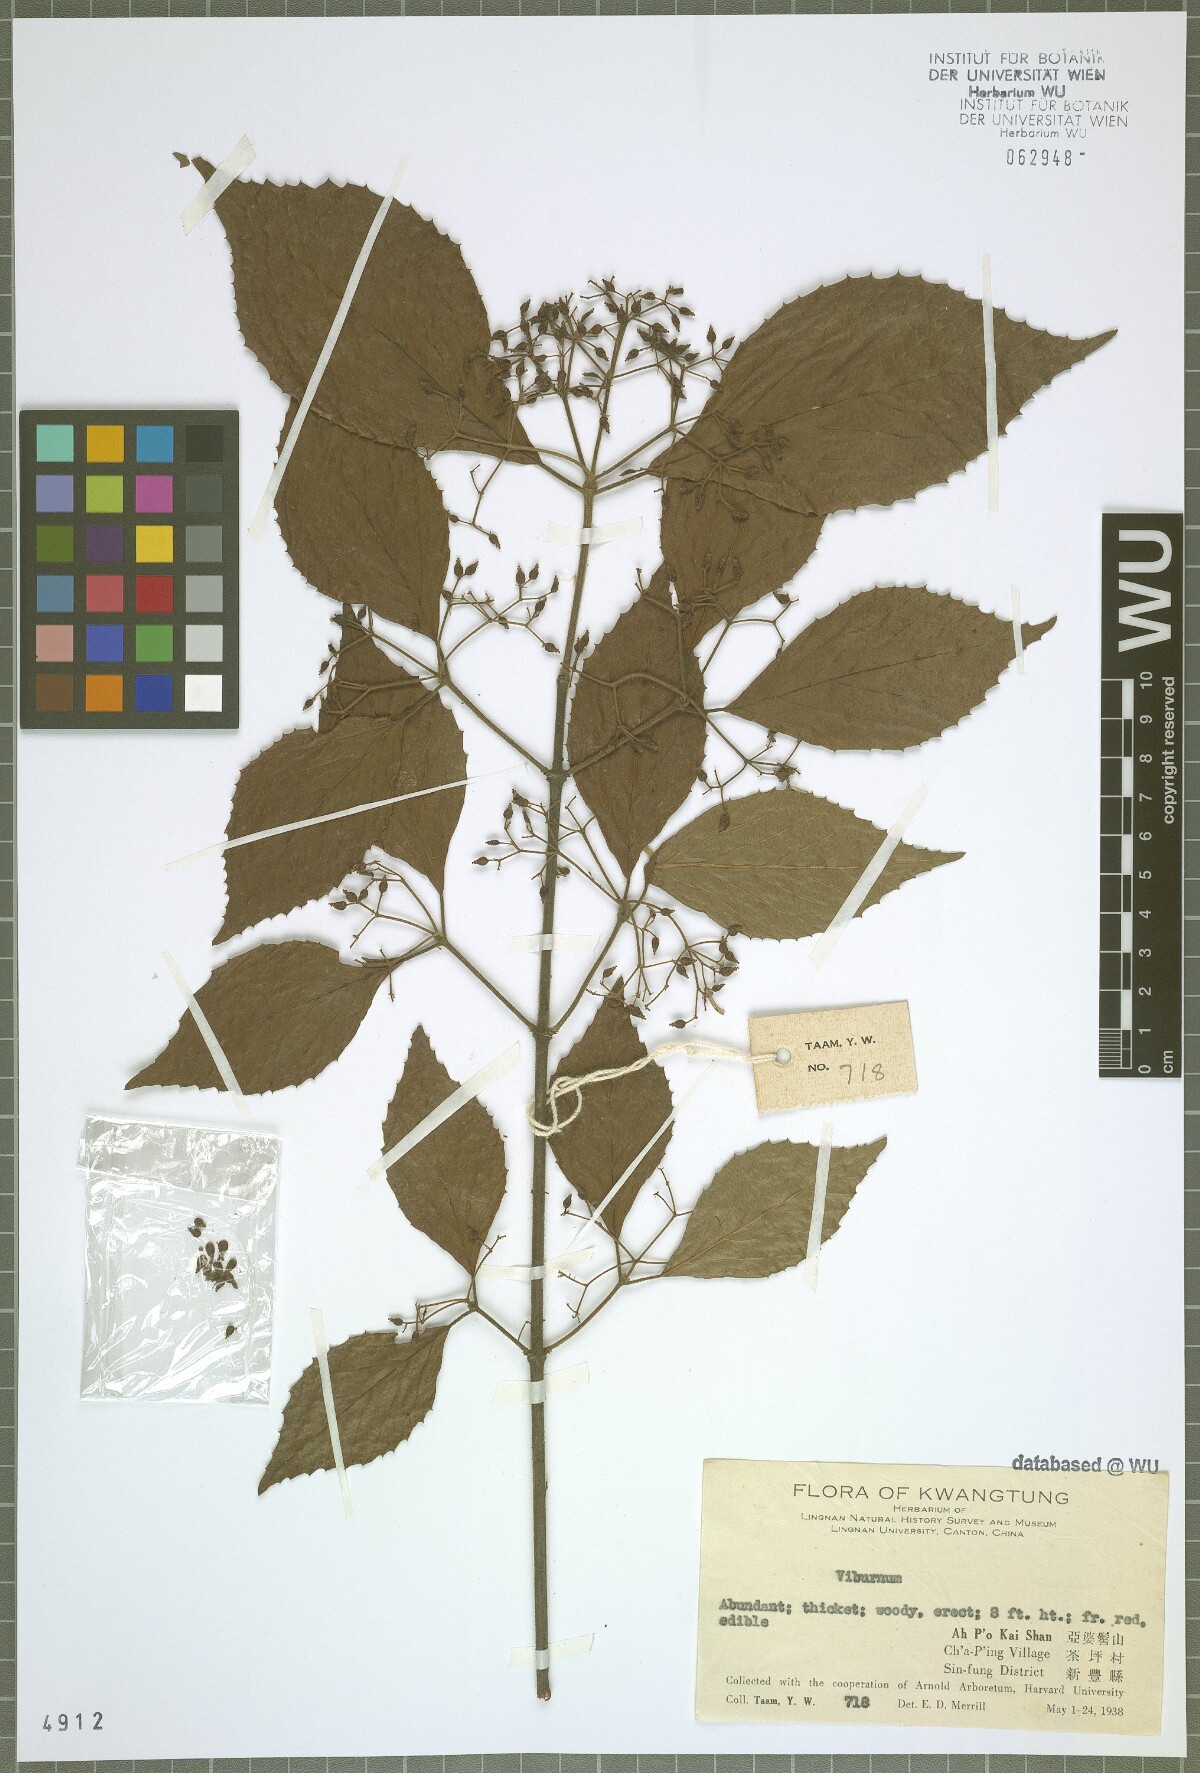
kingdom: Plantae
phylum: Tracheophyta
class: Magnoliopsida
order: Dipsacales
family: Viburnaceae
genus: Viburnum
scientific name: Viburnum
